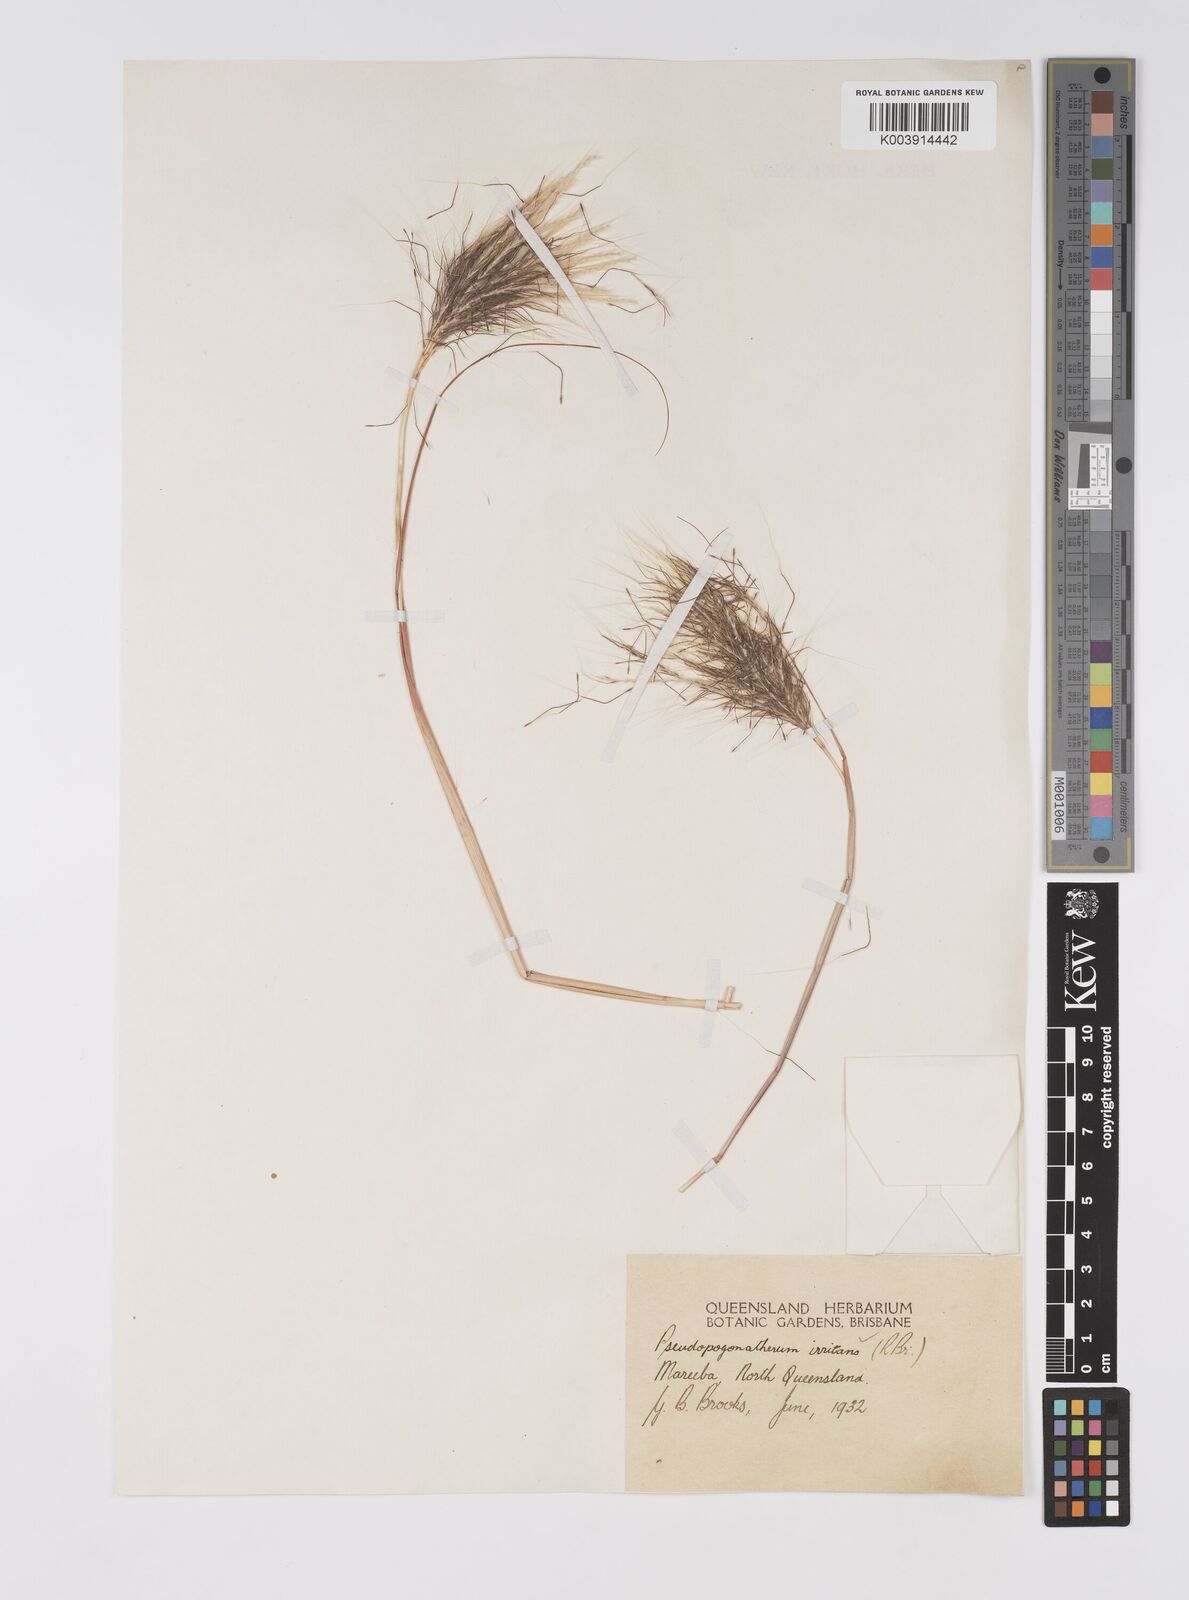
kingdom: Plantae
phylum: Tracheophyta
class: Liliopsida
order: Poales
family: Poaceae
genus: Pseudopogonatherum
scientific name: Pseudopogonatherum irritans
